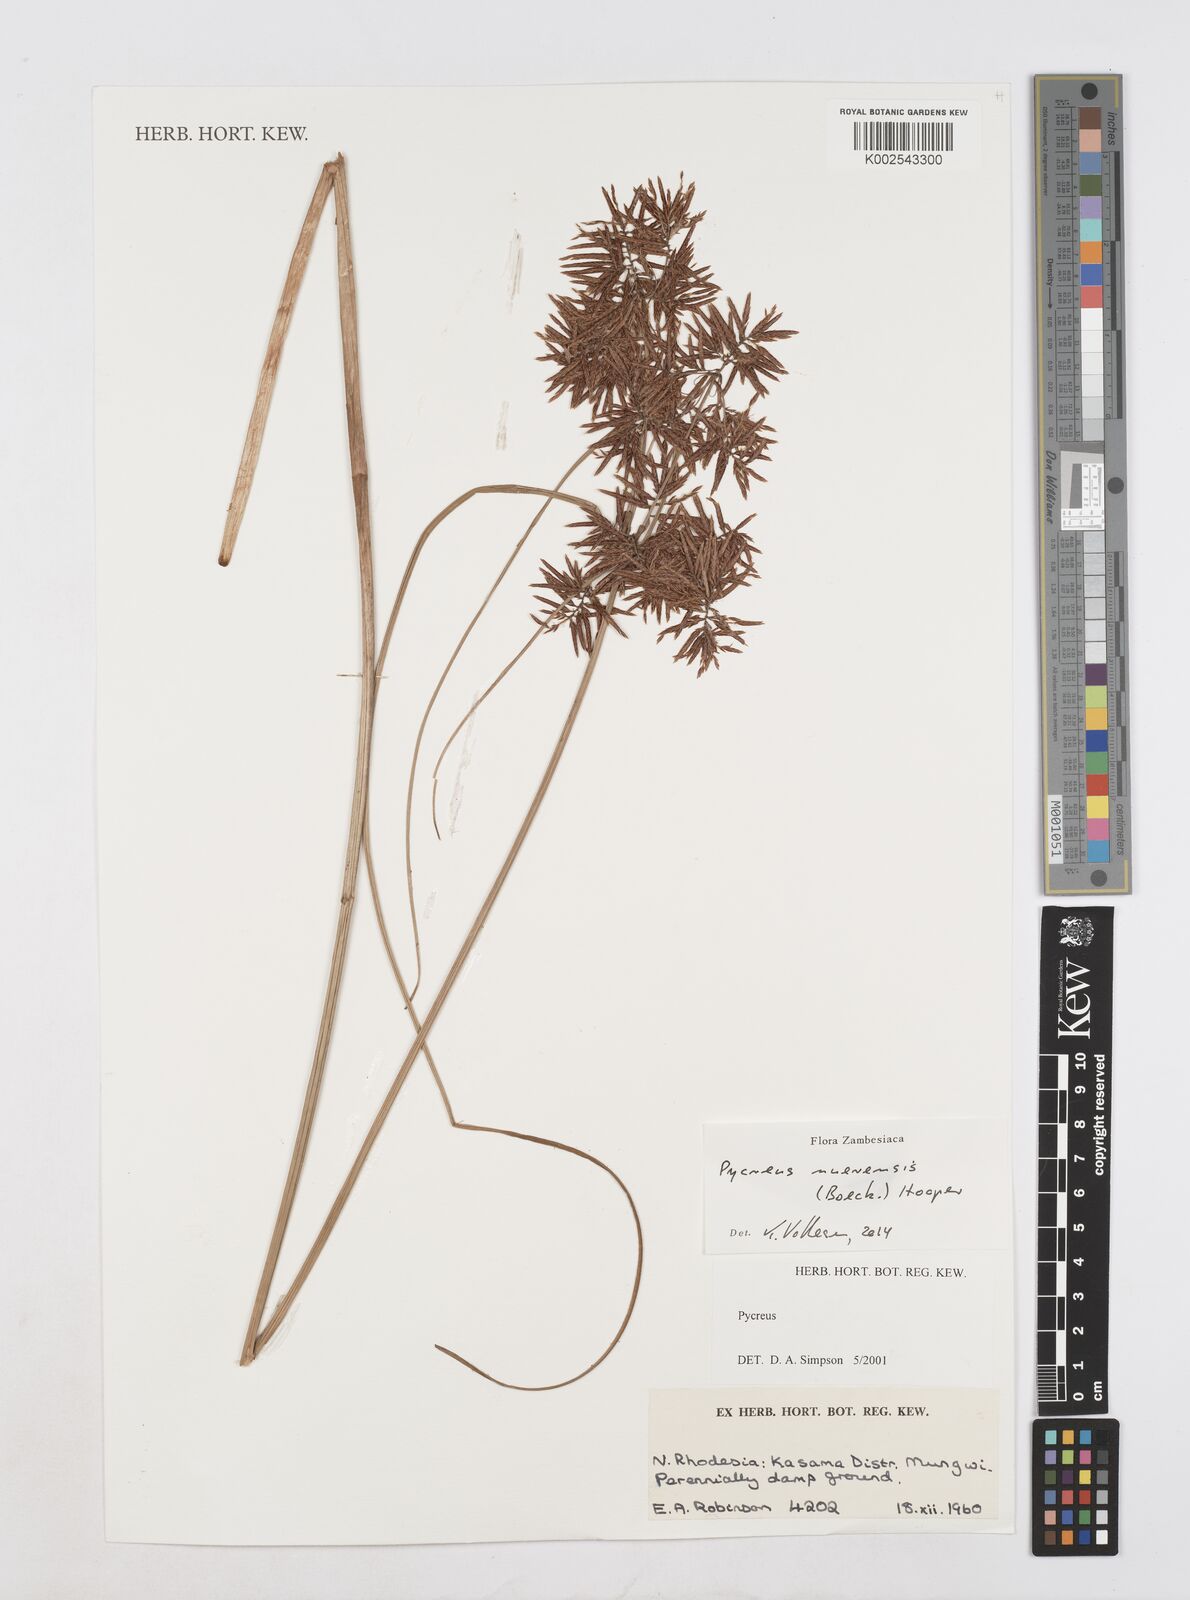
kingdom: Plantae
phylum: Tracheophyta
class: Liliopsida
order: Poales
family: Cyperaceae
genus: Cyperus
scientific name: Cyperus nuerensis
